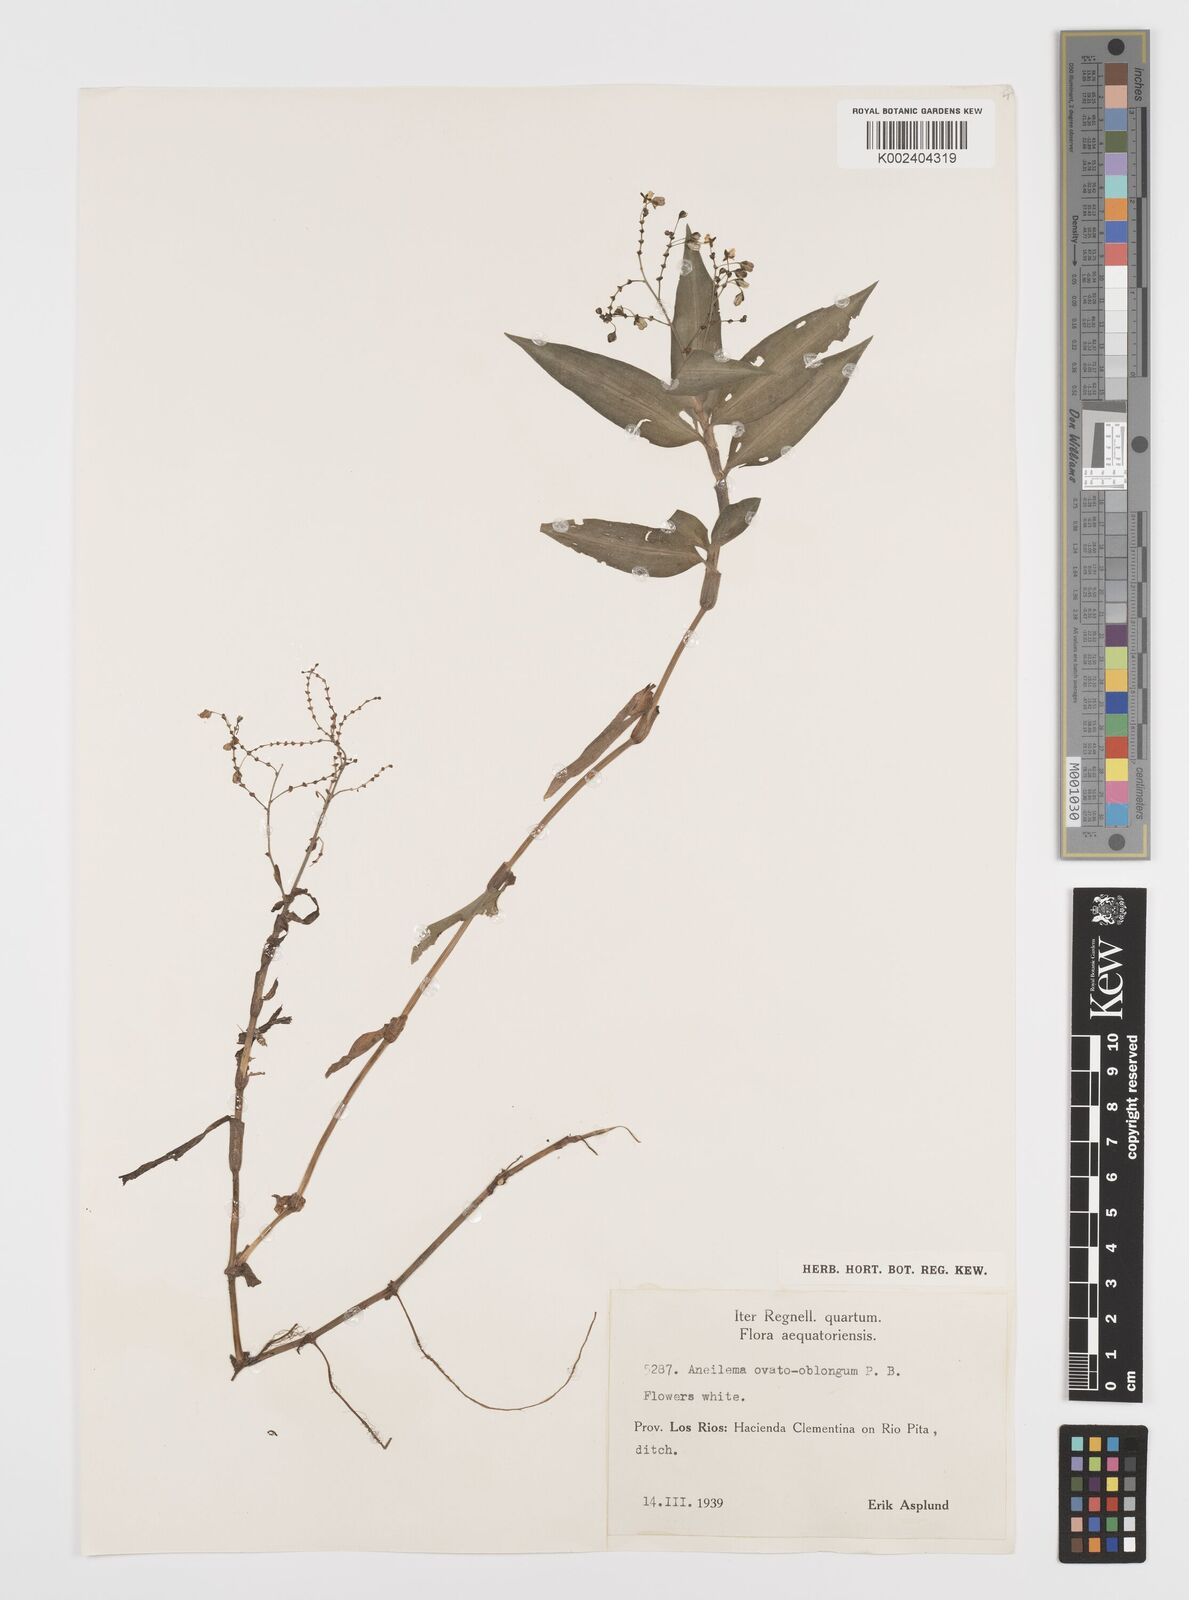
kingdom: Plantae
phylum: Tracheophyta
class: Liliopsida
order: Commelinales
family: Commelinaceae
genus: Aneilema
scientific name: Aneilema umbrosum
